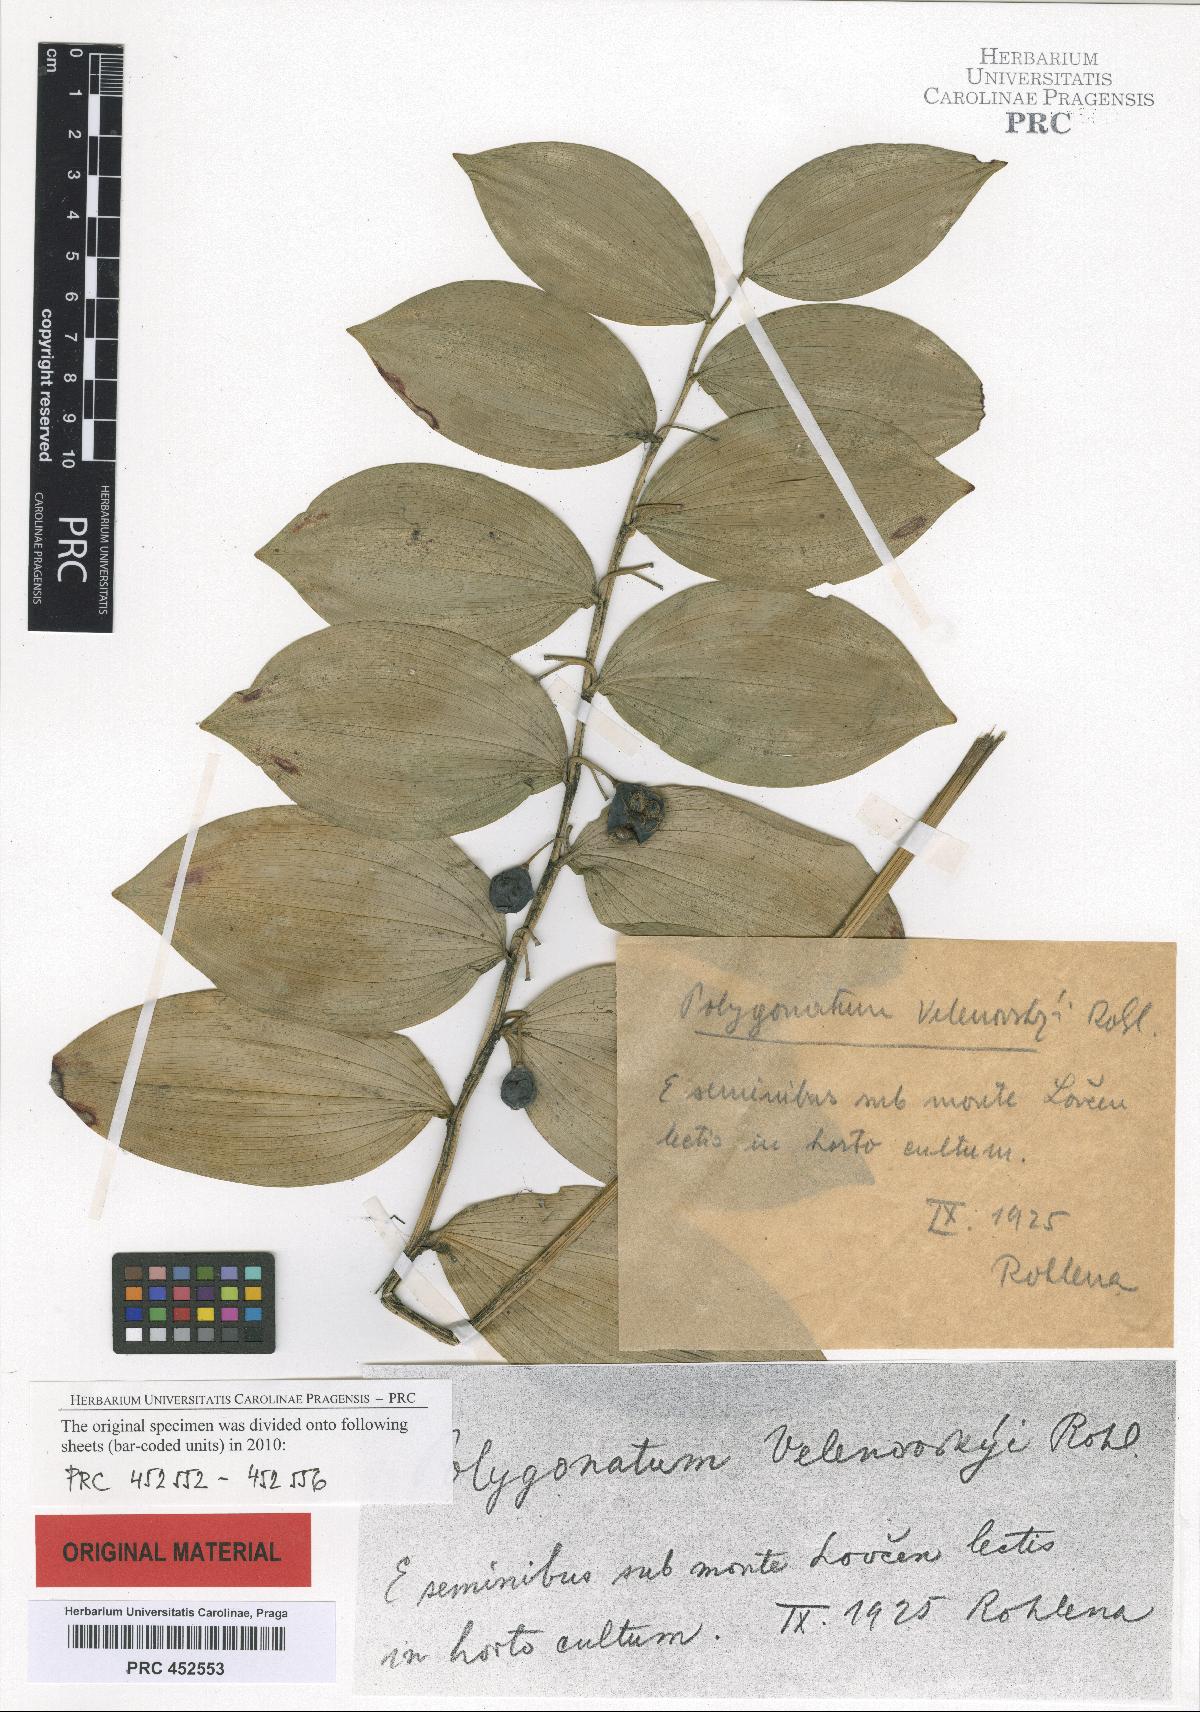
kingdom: Plantae
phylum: Tracheophyta
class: Liliopsida
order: Asparagales
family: Asparagaceae
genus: Polygonatum
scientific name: Polygonatum velenovskyi
